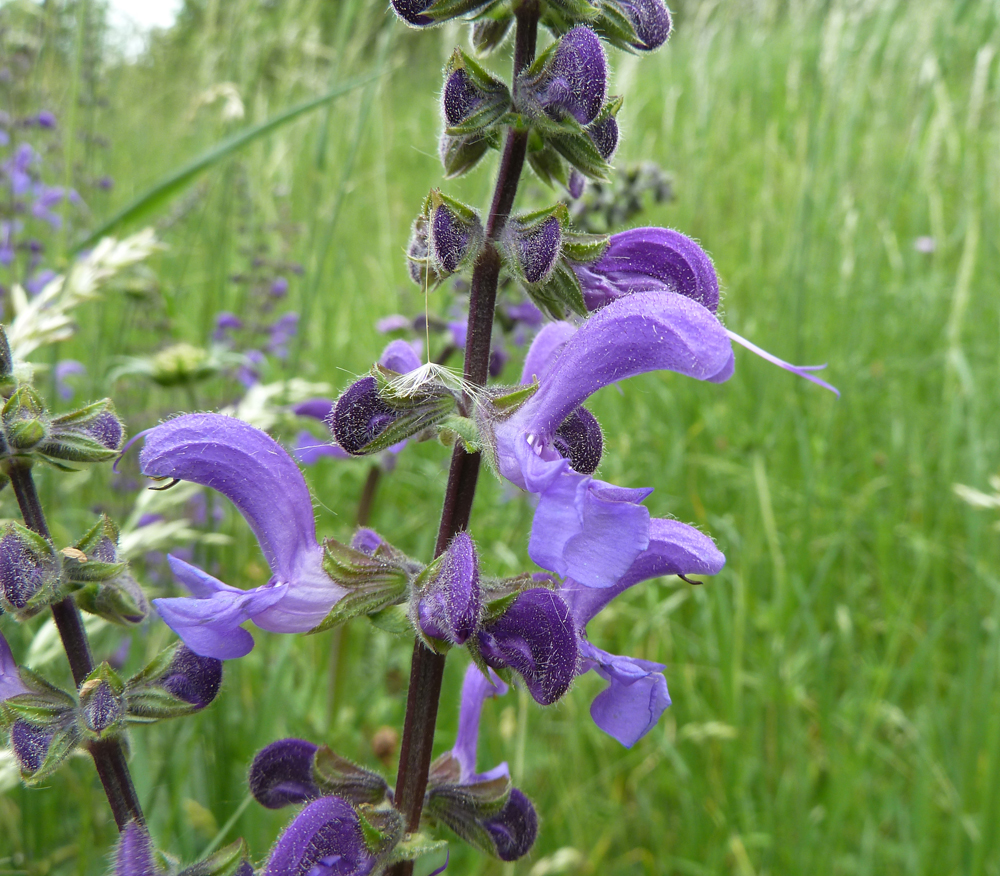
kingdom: Plantae
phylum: Tracheophyta
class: Magnoliopsida
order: Lamiales
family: Lamiaceae
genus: Salvia
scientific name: Salvia pratensis
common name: Meadow sage
